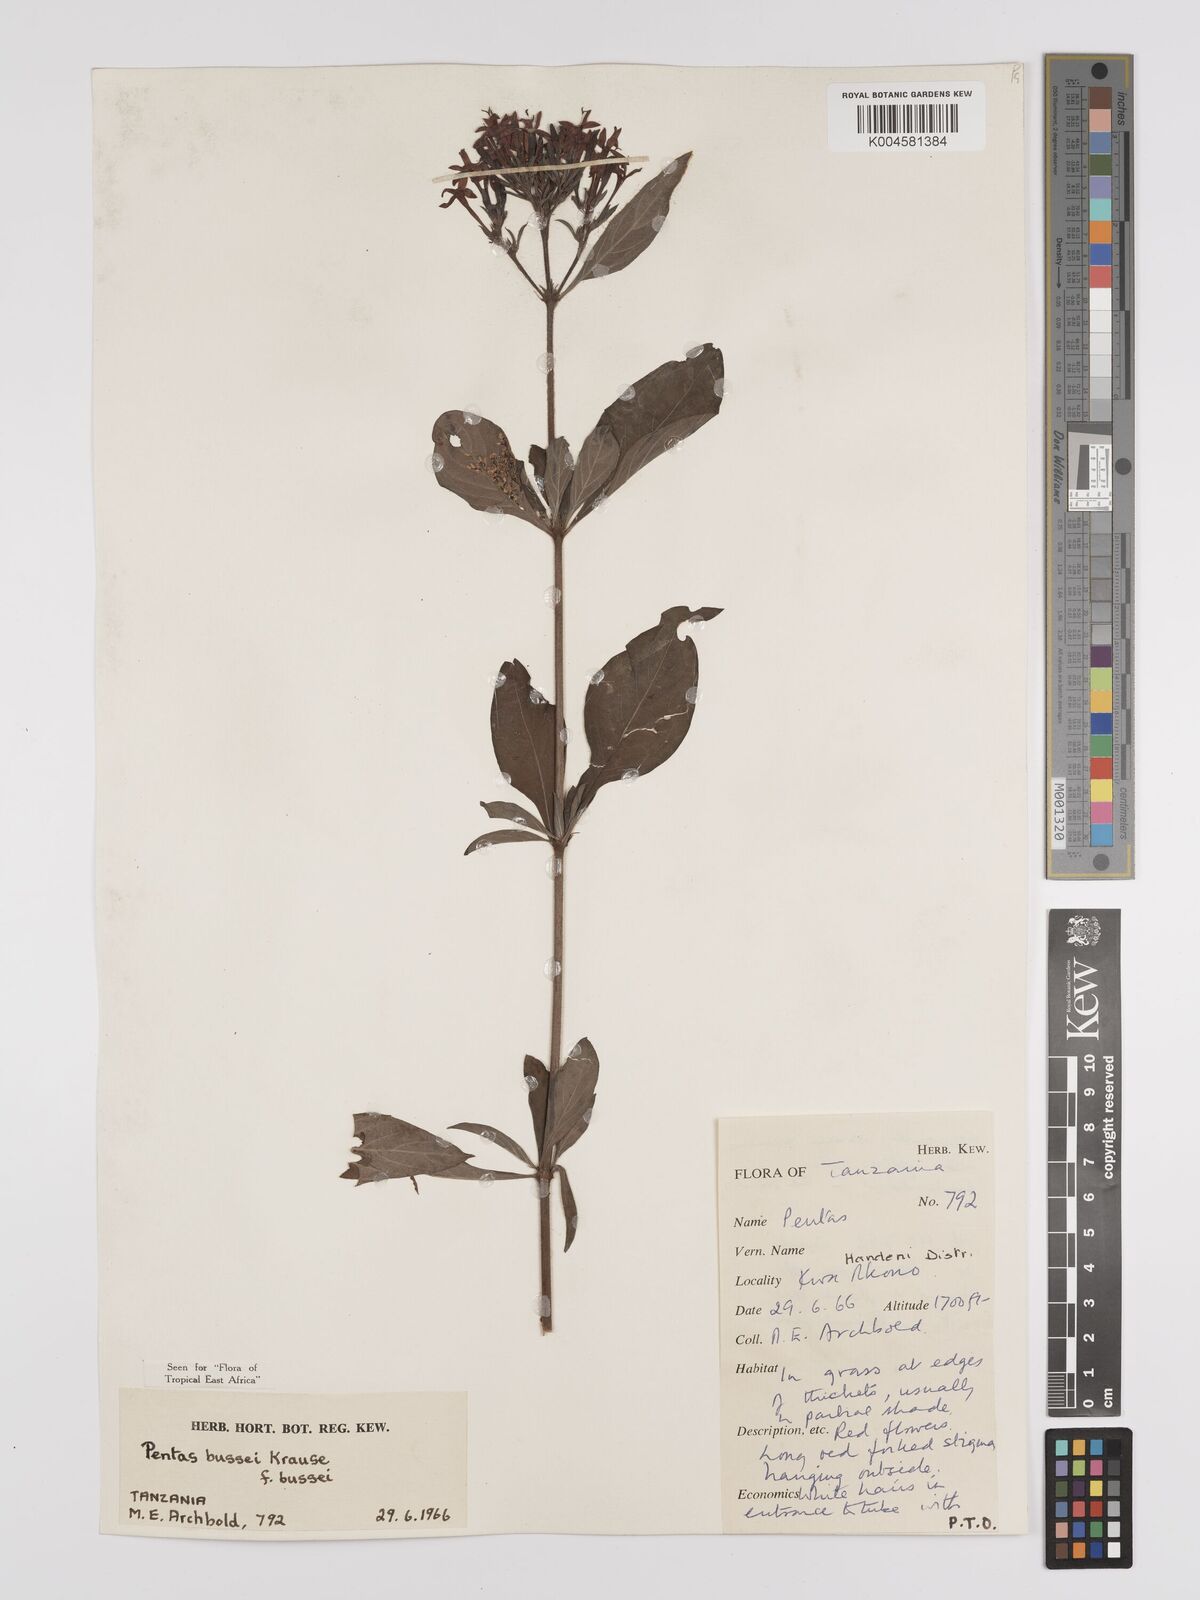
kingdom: Plantae
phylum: Tracheophyta
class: Magnoliopsida
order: Gentianales
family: Rubiaceae
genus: Rhodopentas
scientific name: Rhodopentas bussei
